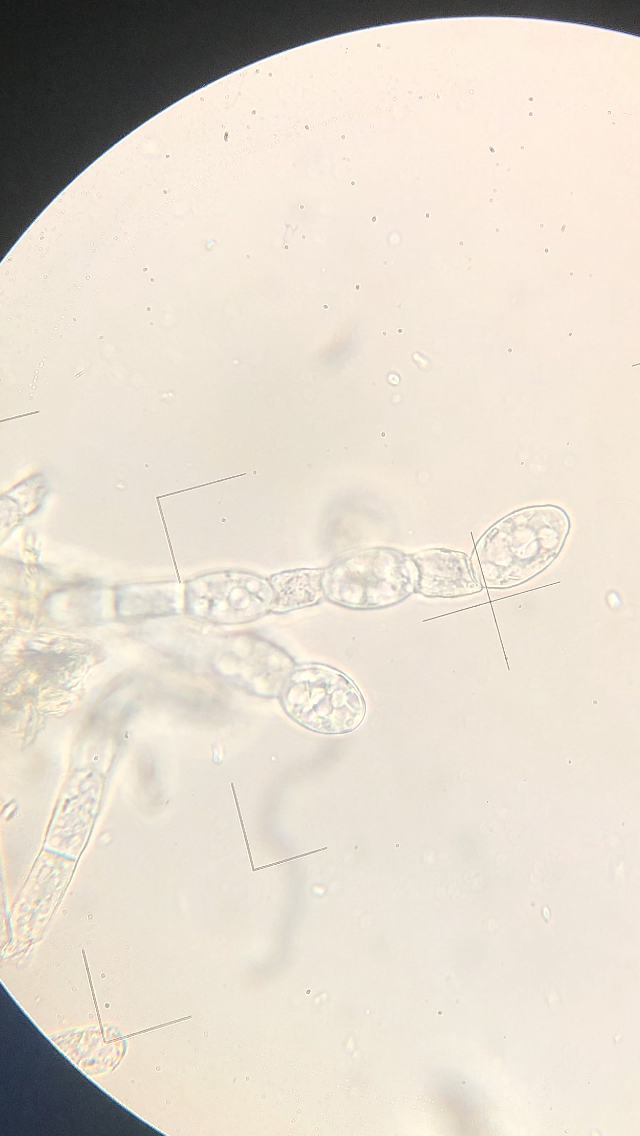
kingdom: Fungi
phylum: Ascomycota
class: Leotiomycetes
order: Helotiales
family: Erysiphaceae
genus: Podosphaera
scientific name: Podosphaera filipendulae
